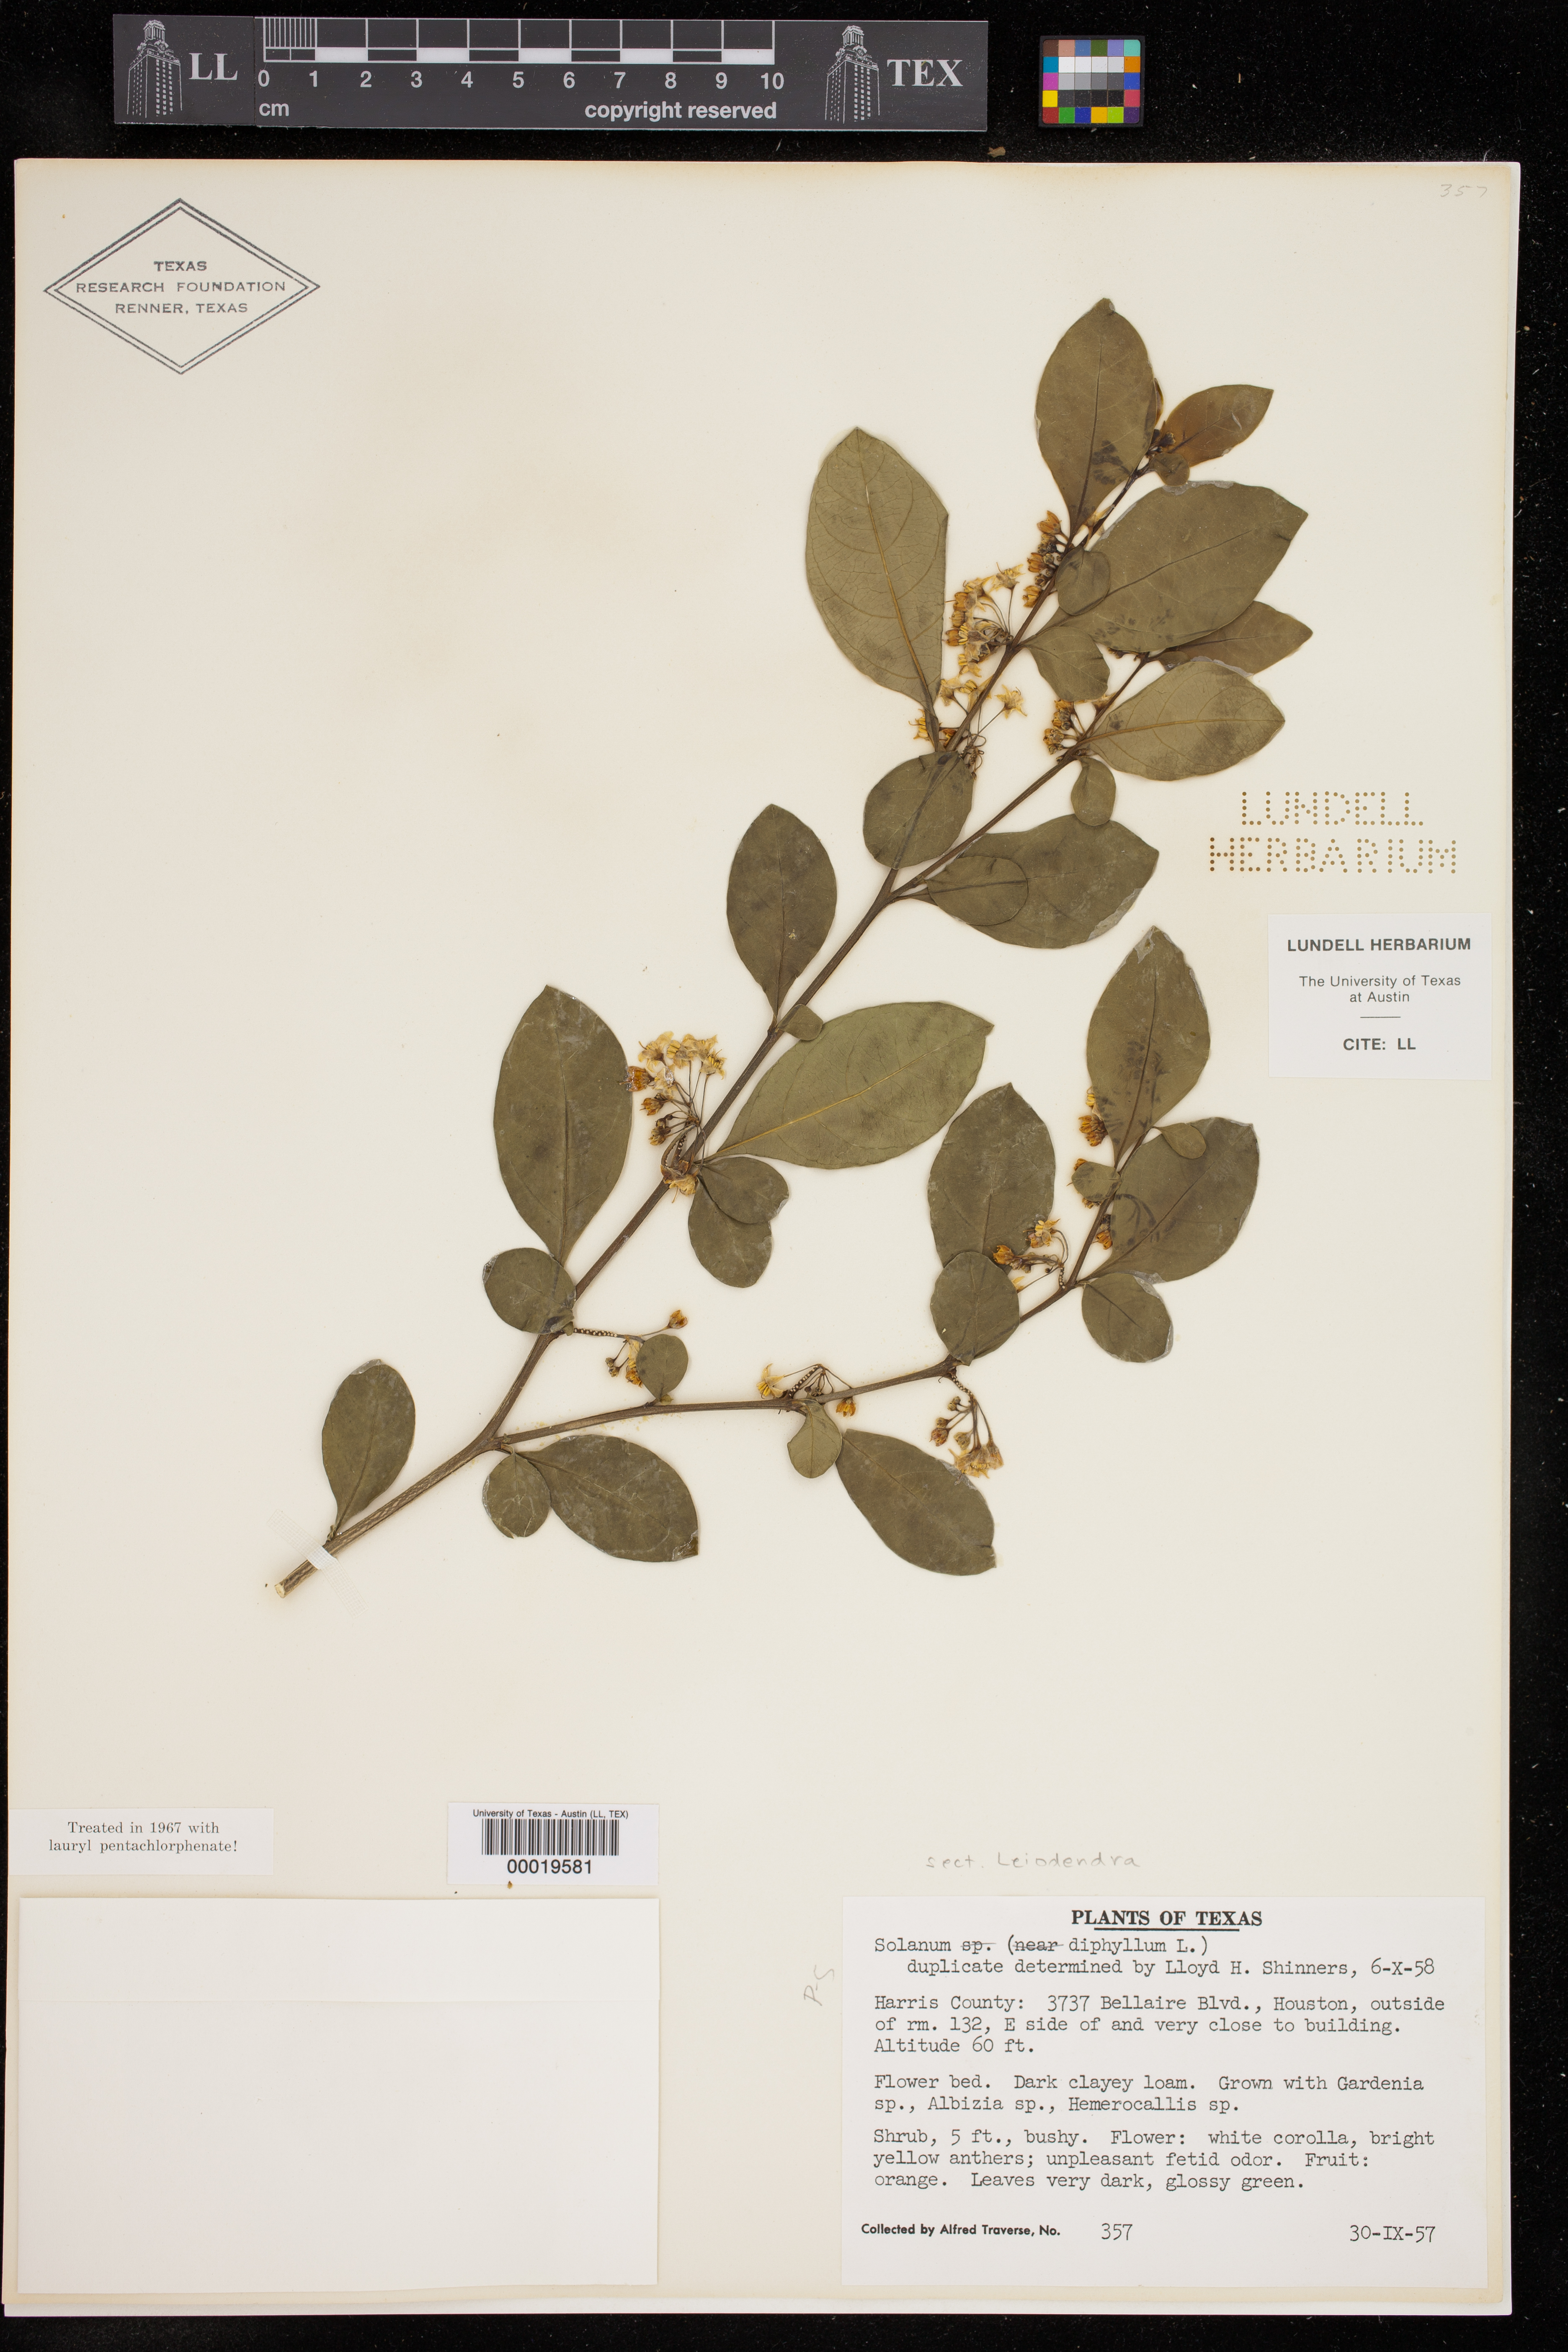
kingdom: Plantae
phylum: Tracheophyta
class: Magnoliopsida
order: Solanales
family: Solanaceae
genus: Solanum
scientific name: Solanum diphyllum
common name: Twoleaf nightshade
